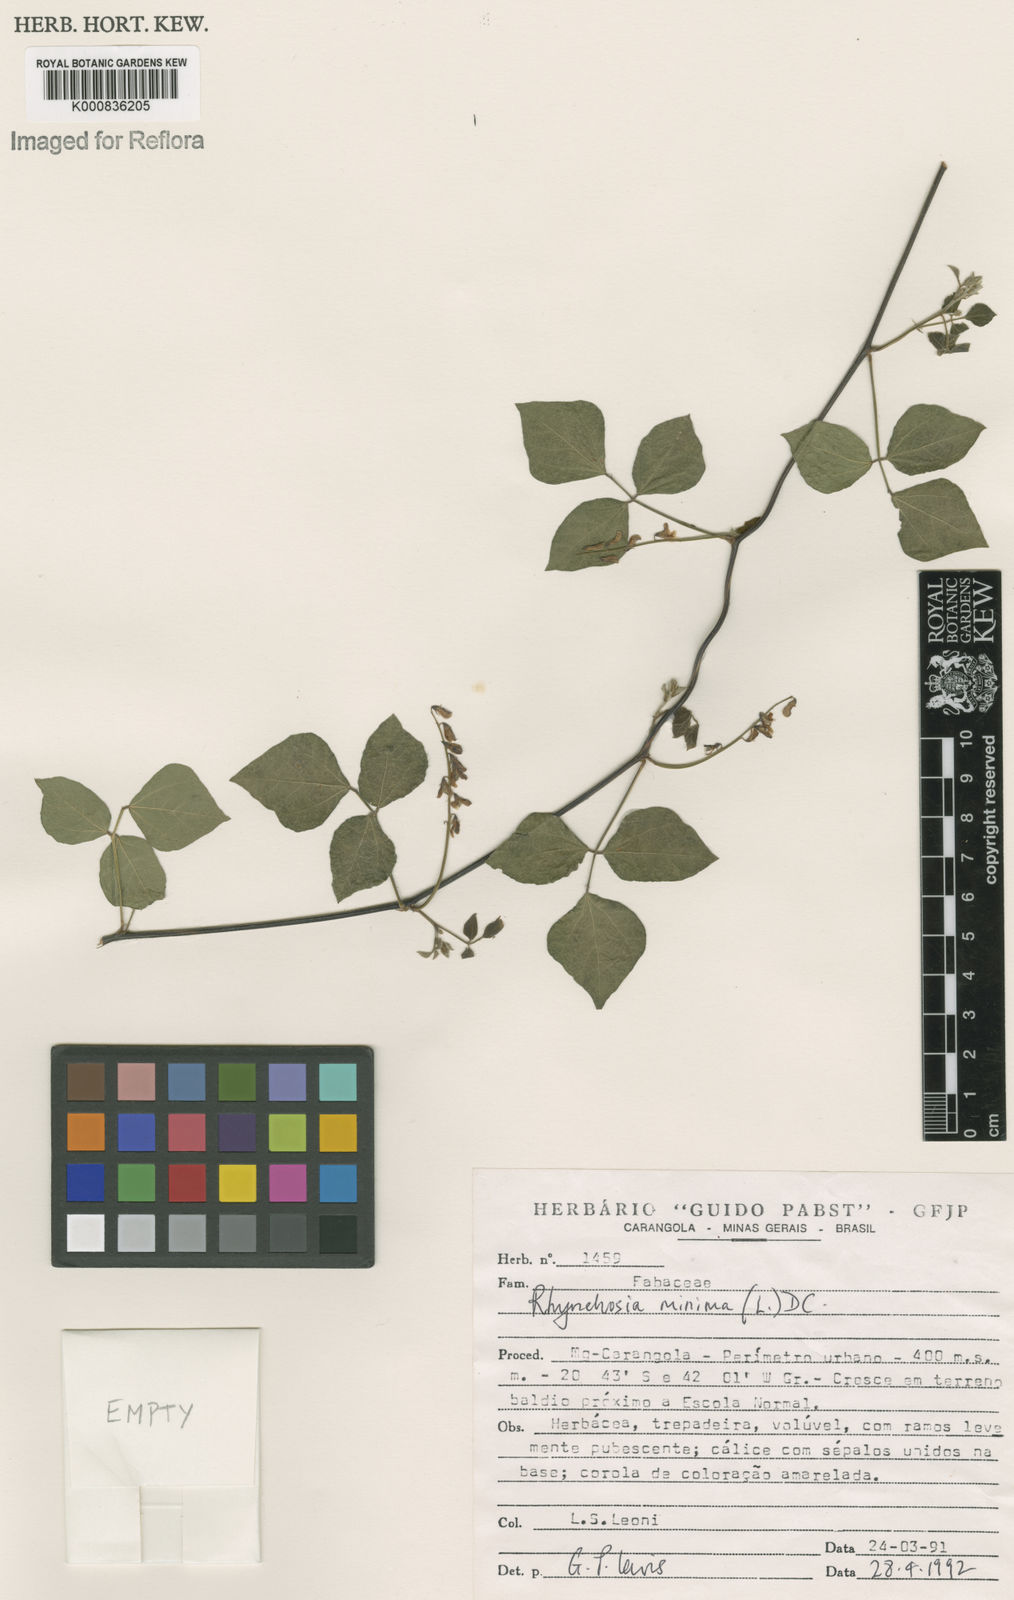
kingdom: Plantae
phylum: Tracheophyta
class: Magnoliopsida
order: Fabales
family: Fabaceae
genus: Rhynchosia
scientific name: Rhynchosia minima
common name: Least snoutbean
